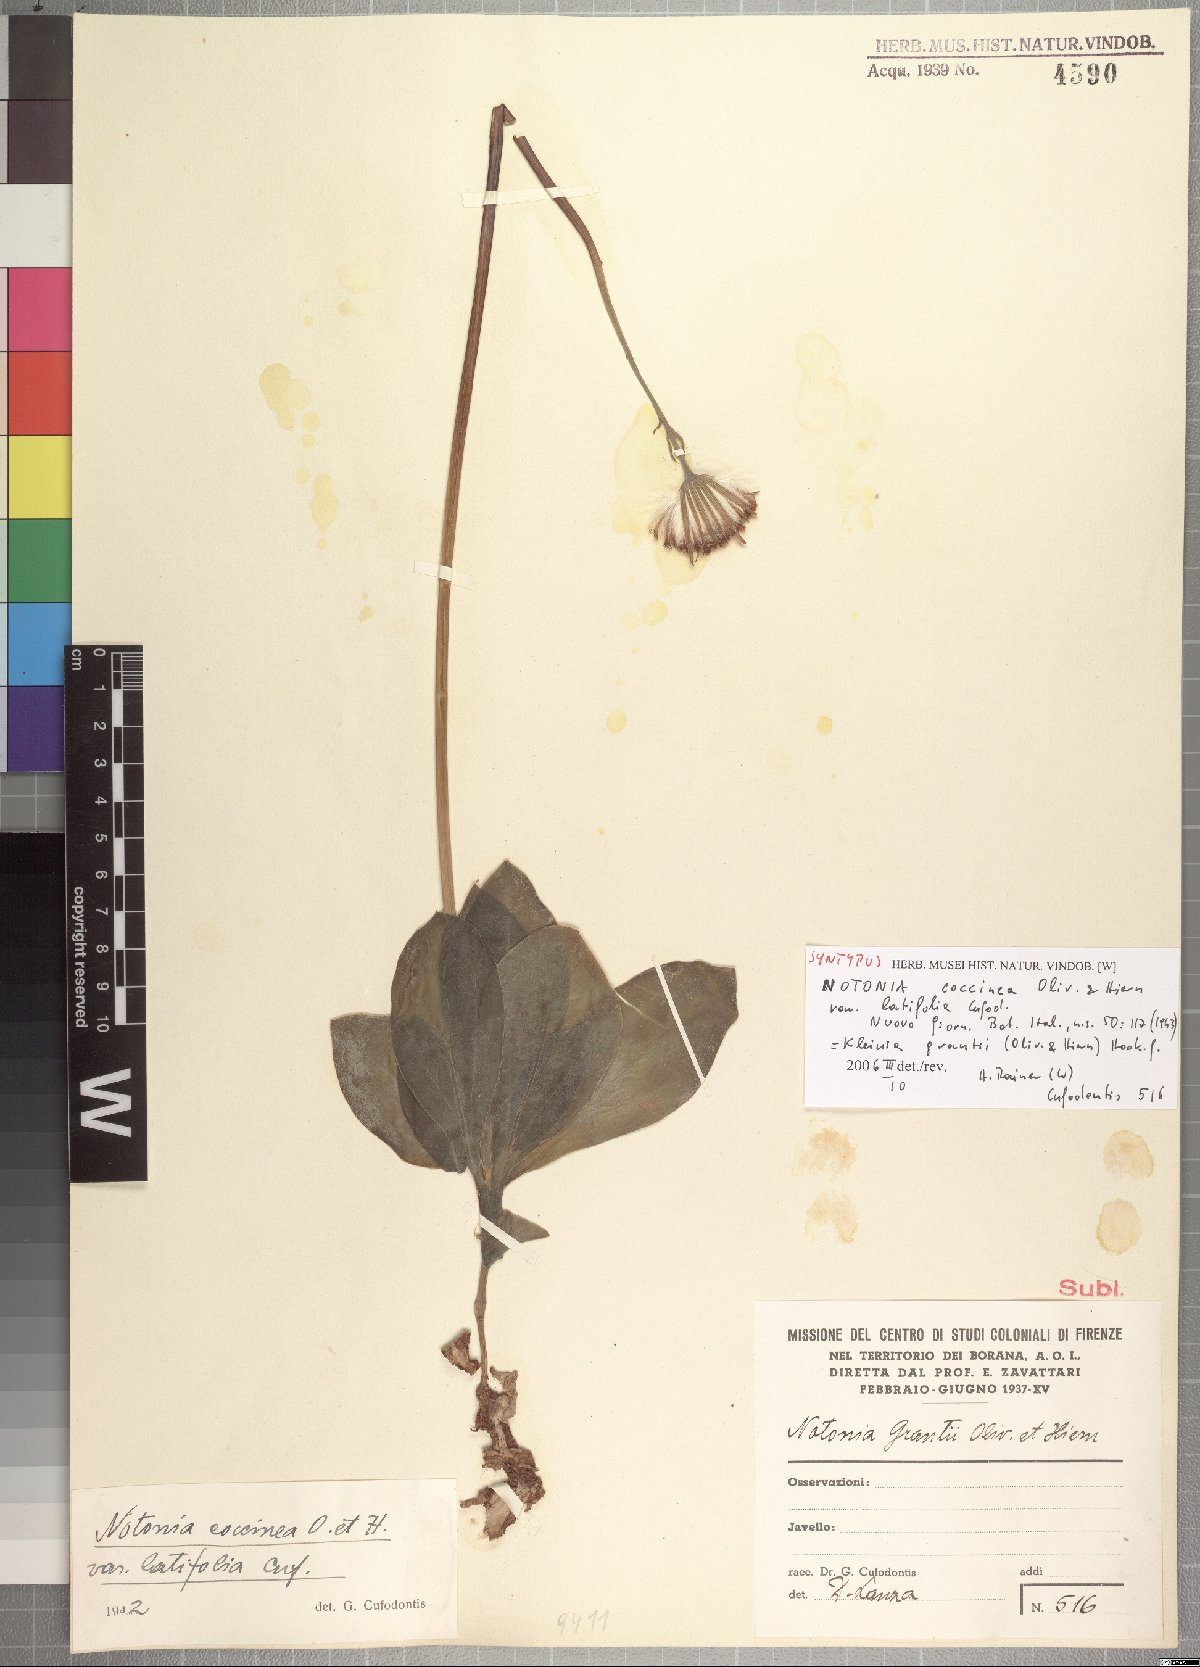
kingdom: Plantae
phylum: Tracheophyta
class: Magnoliopsida
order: Asterales
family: Asteraceae
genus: Kleinia
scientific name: Kleinia grantii
